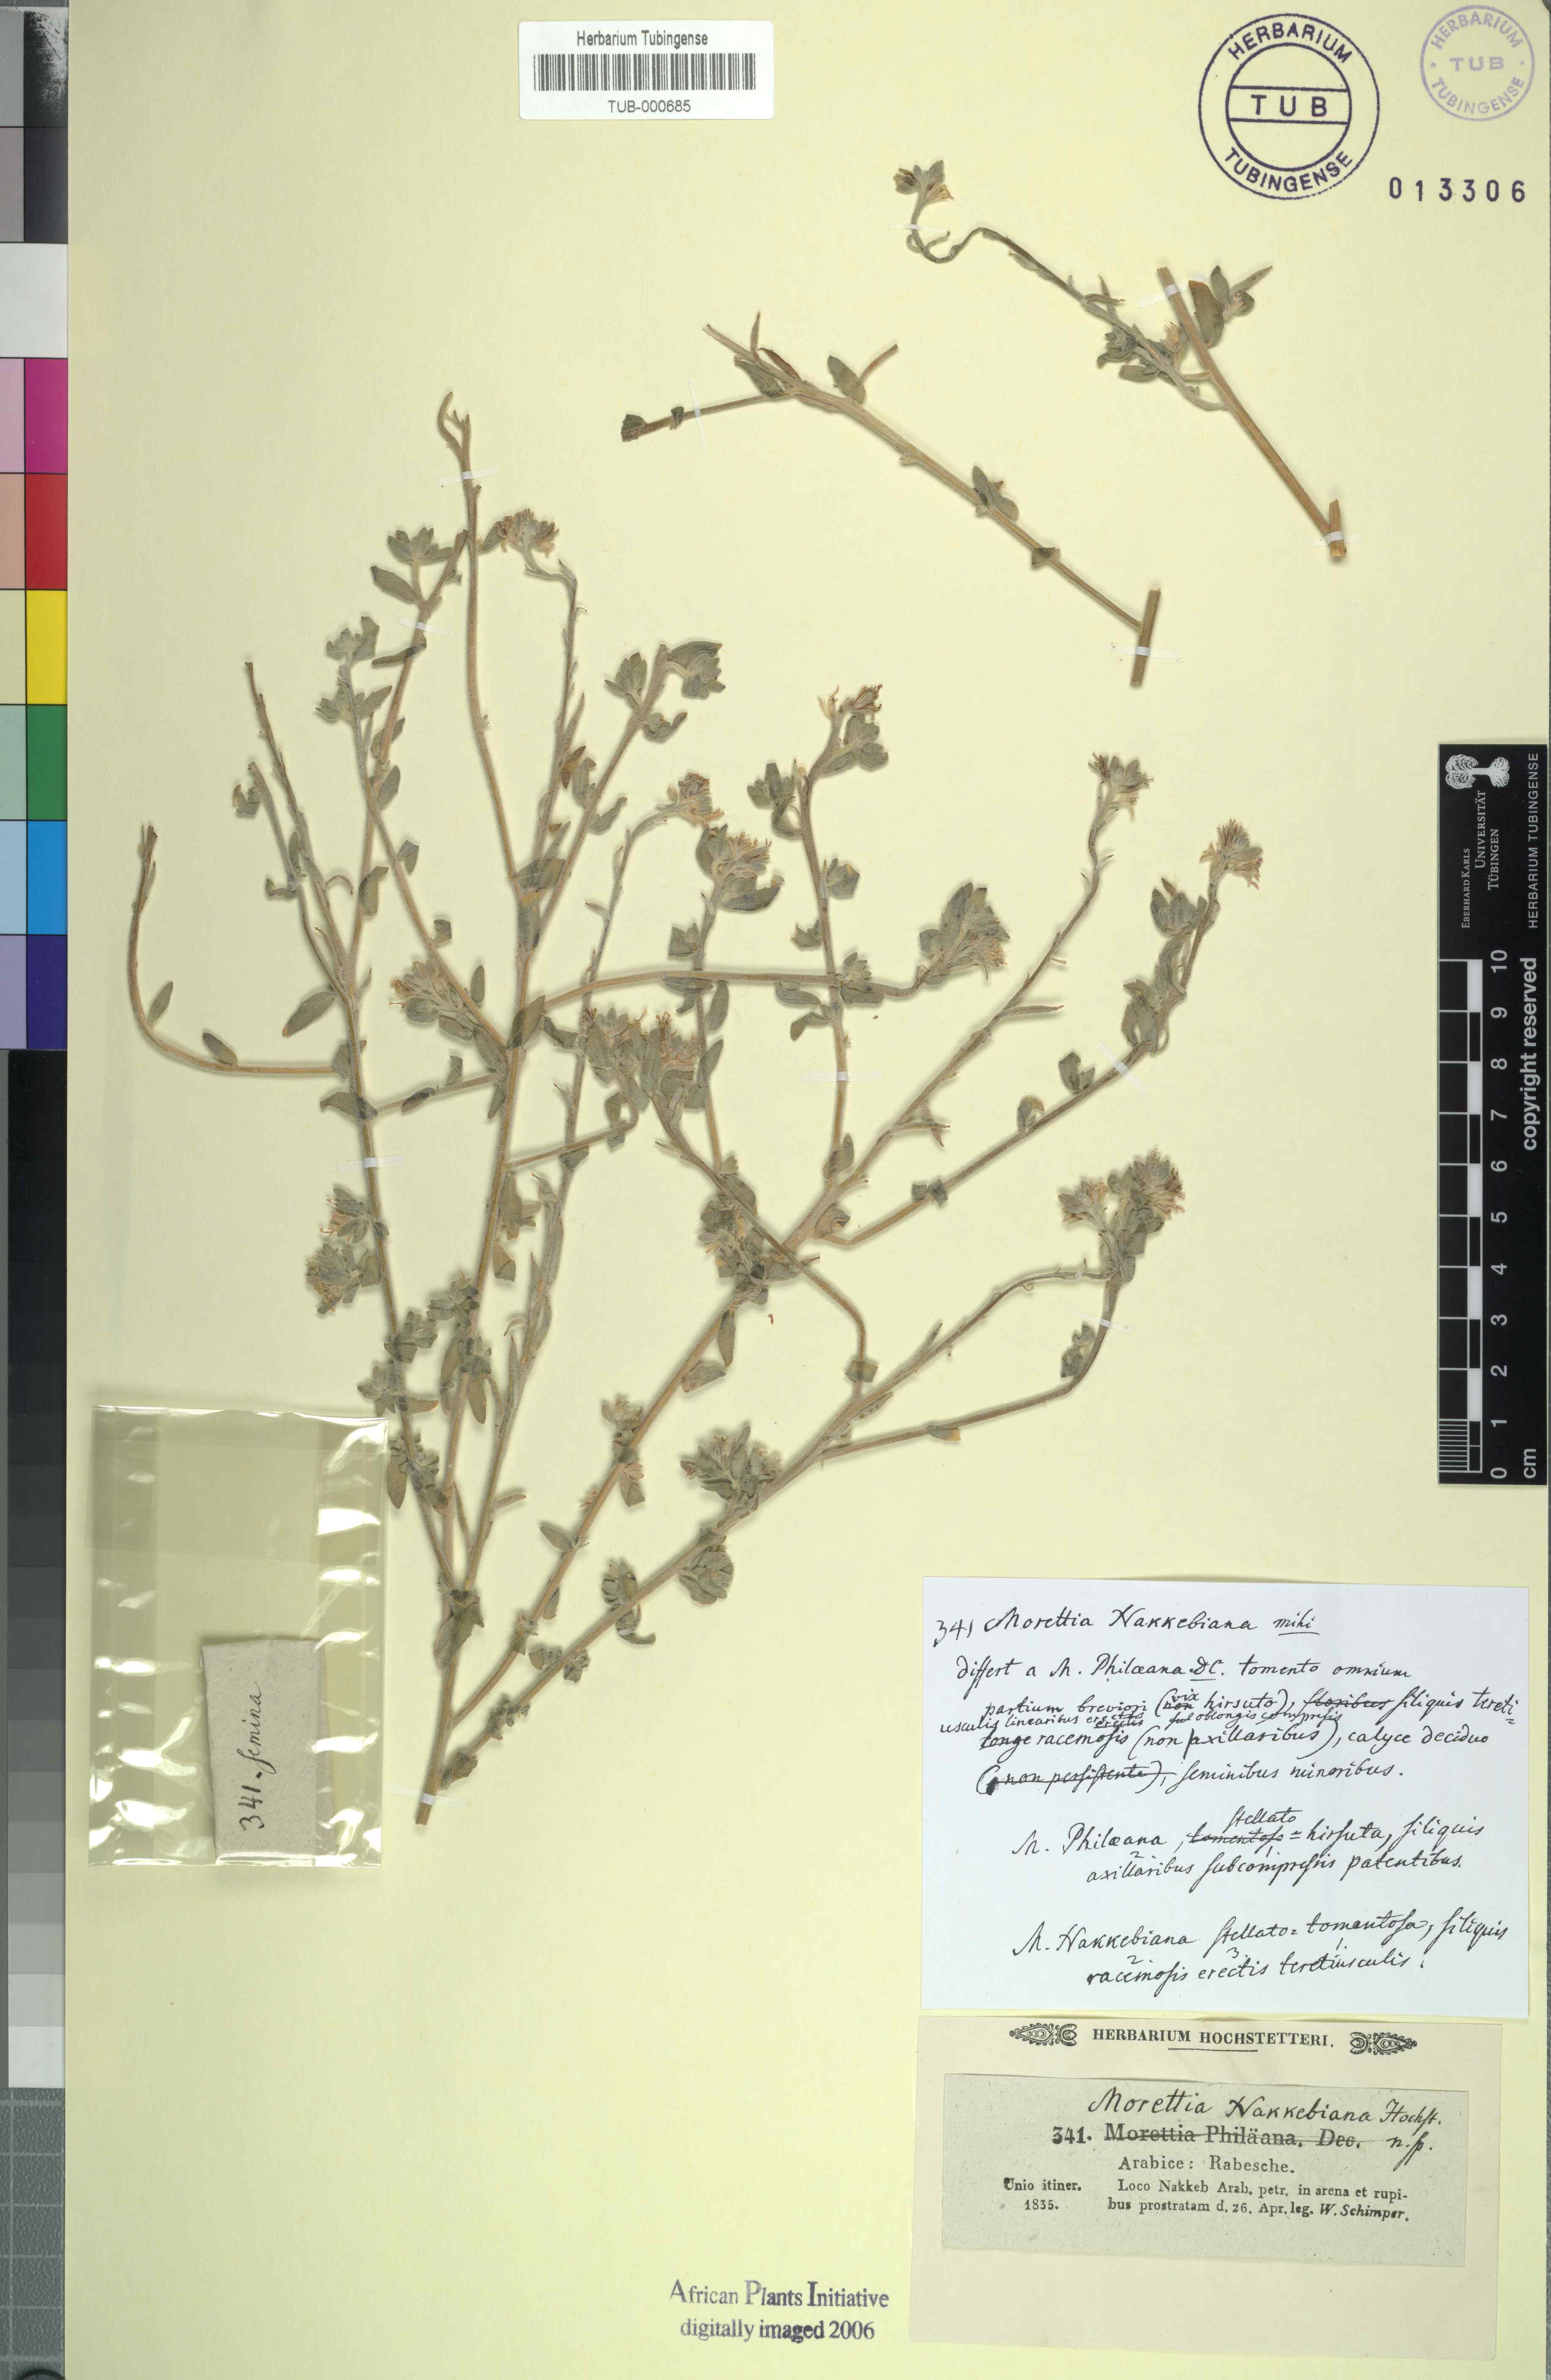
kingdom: Plantae
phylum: Tracheophyta
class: Magnoliopsida
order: Brassicales
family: Brassicaceae
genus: Morettia
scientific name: Morettia nakkebiana
